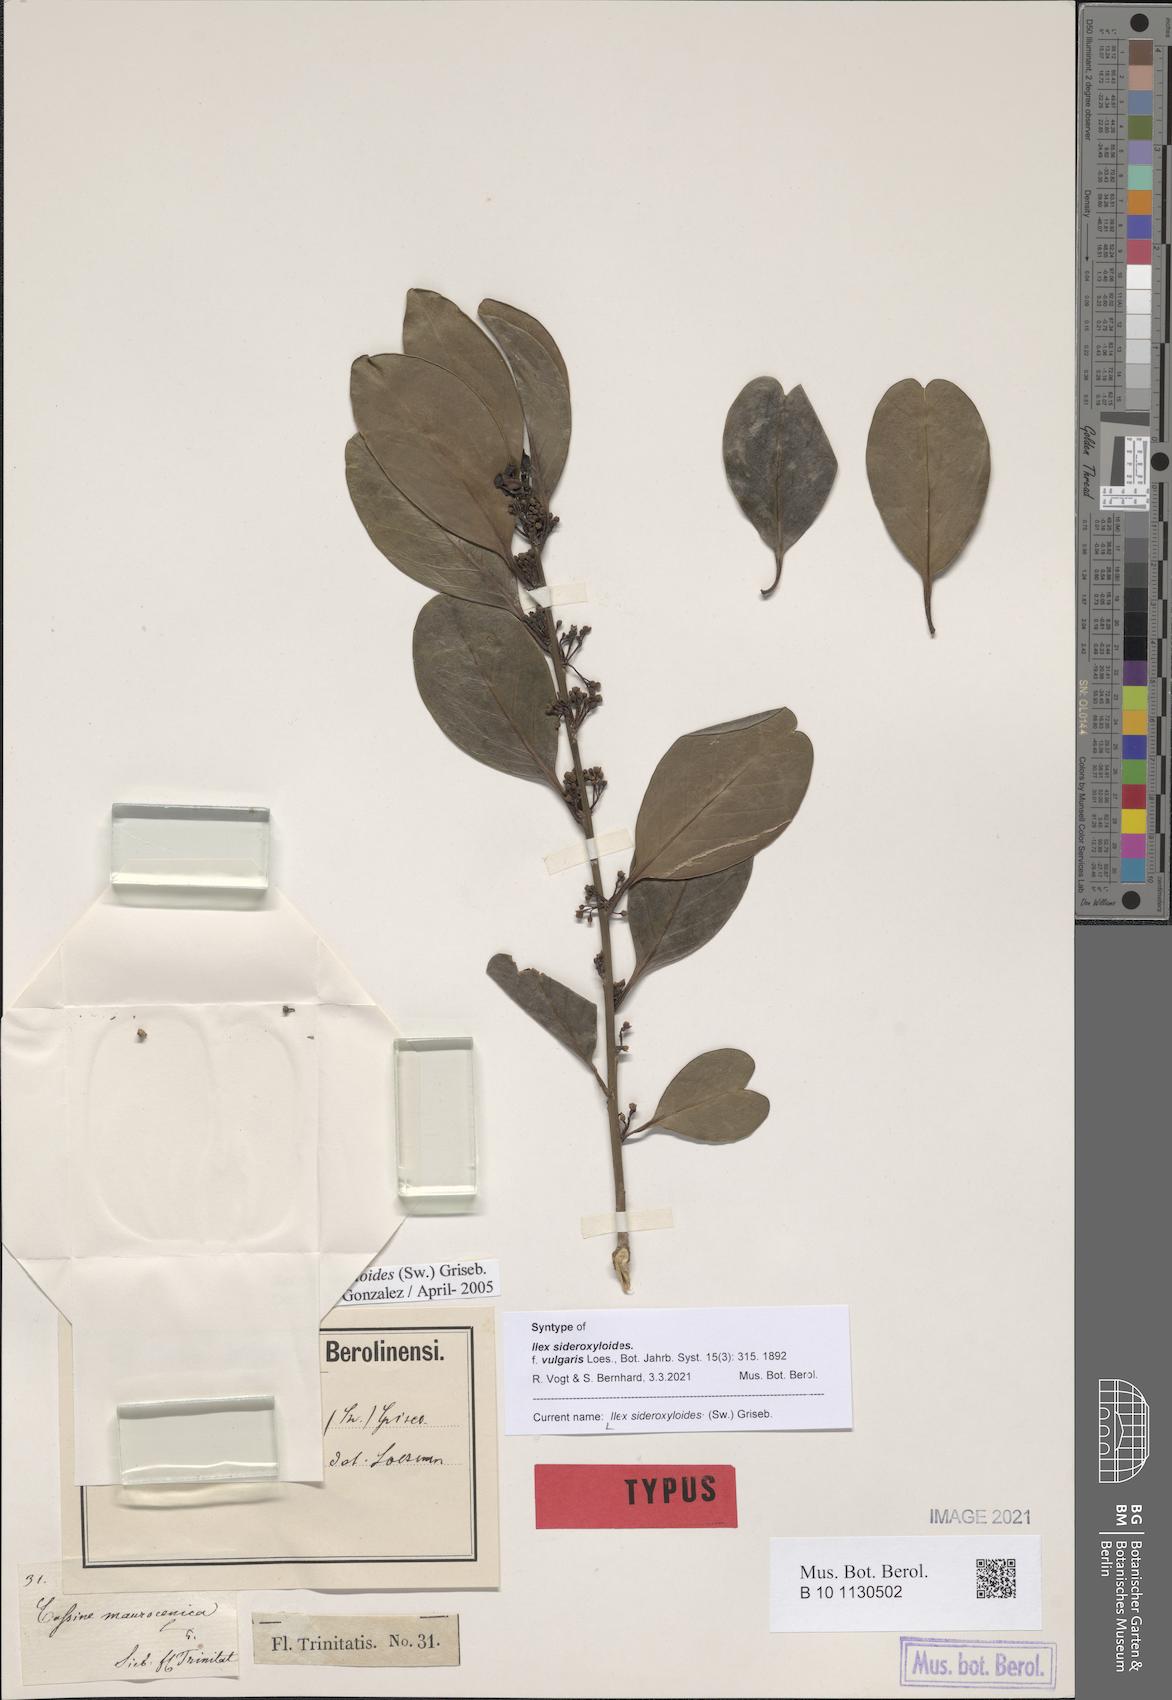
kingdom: Plantae
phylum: Tracheophyta
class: Magnoliopsida
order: Aquifoliales
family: Aquifoliaceae
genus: Ilex
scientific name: Ilex sideroxyloides
